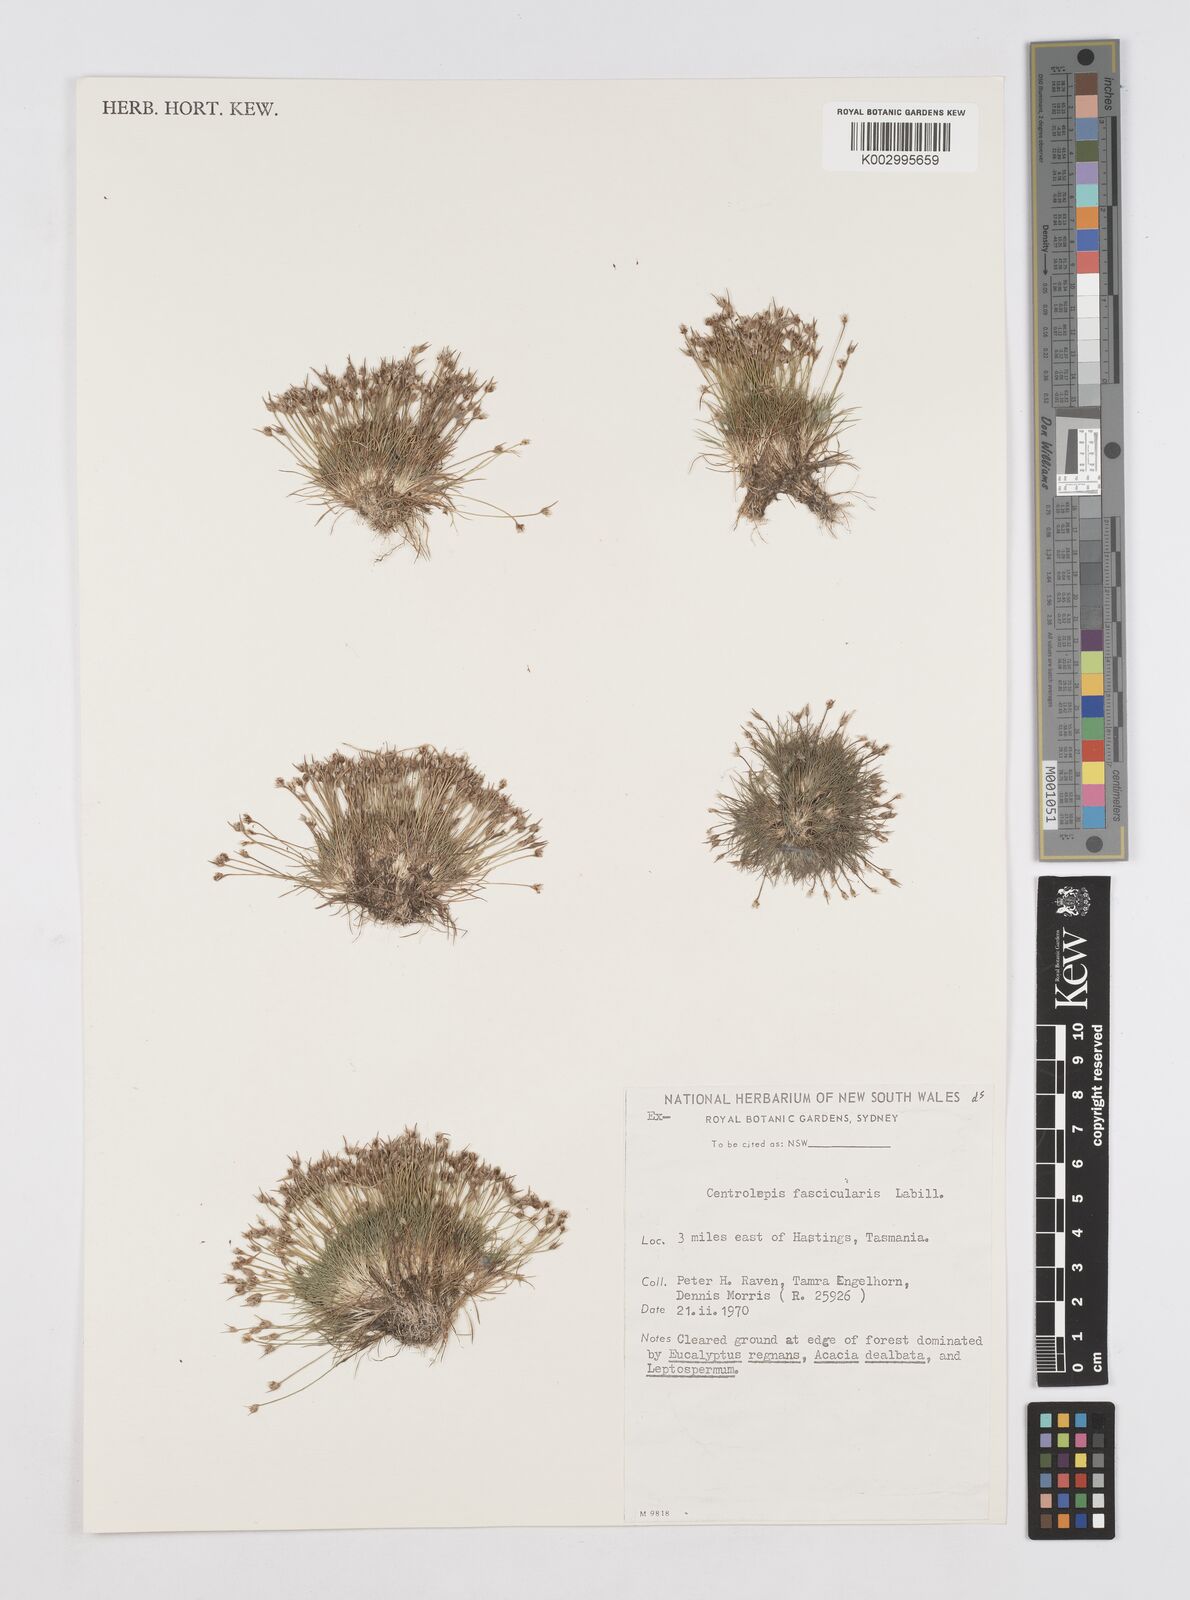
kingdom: Plantae
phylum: Tracheophyta
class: Liliopsida
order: Poales
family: Restionaceae
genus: Centrolepis
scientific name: Centrolepis fascicularis
